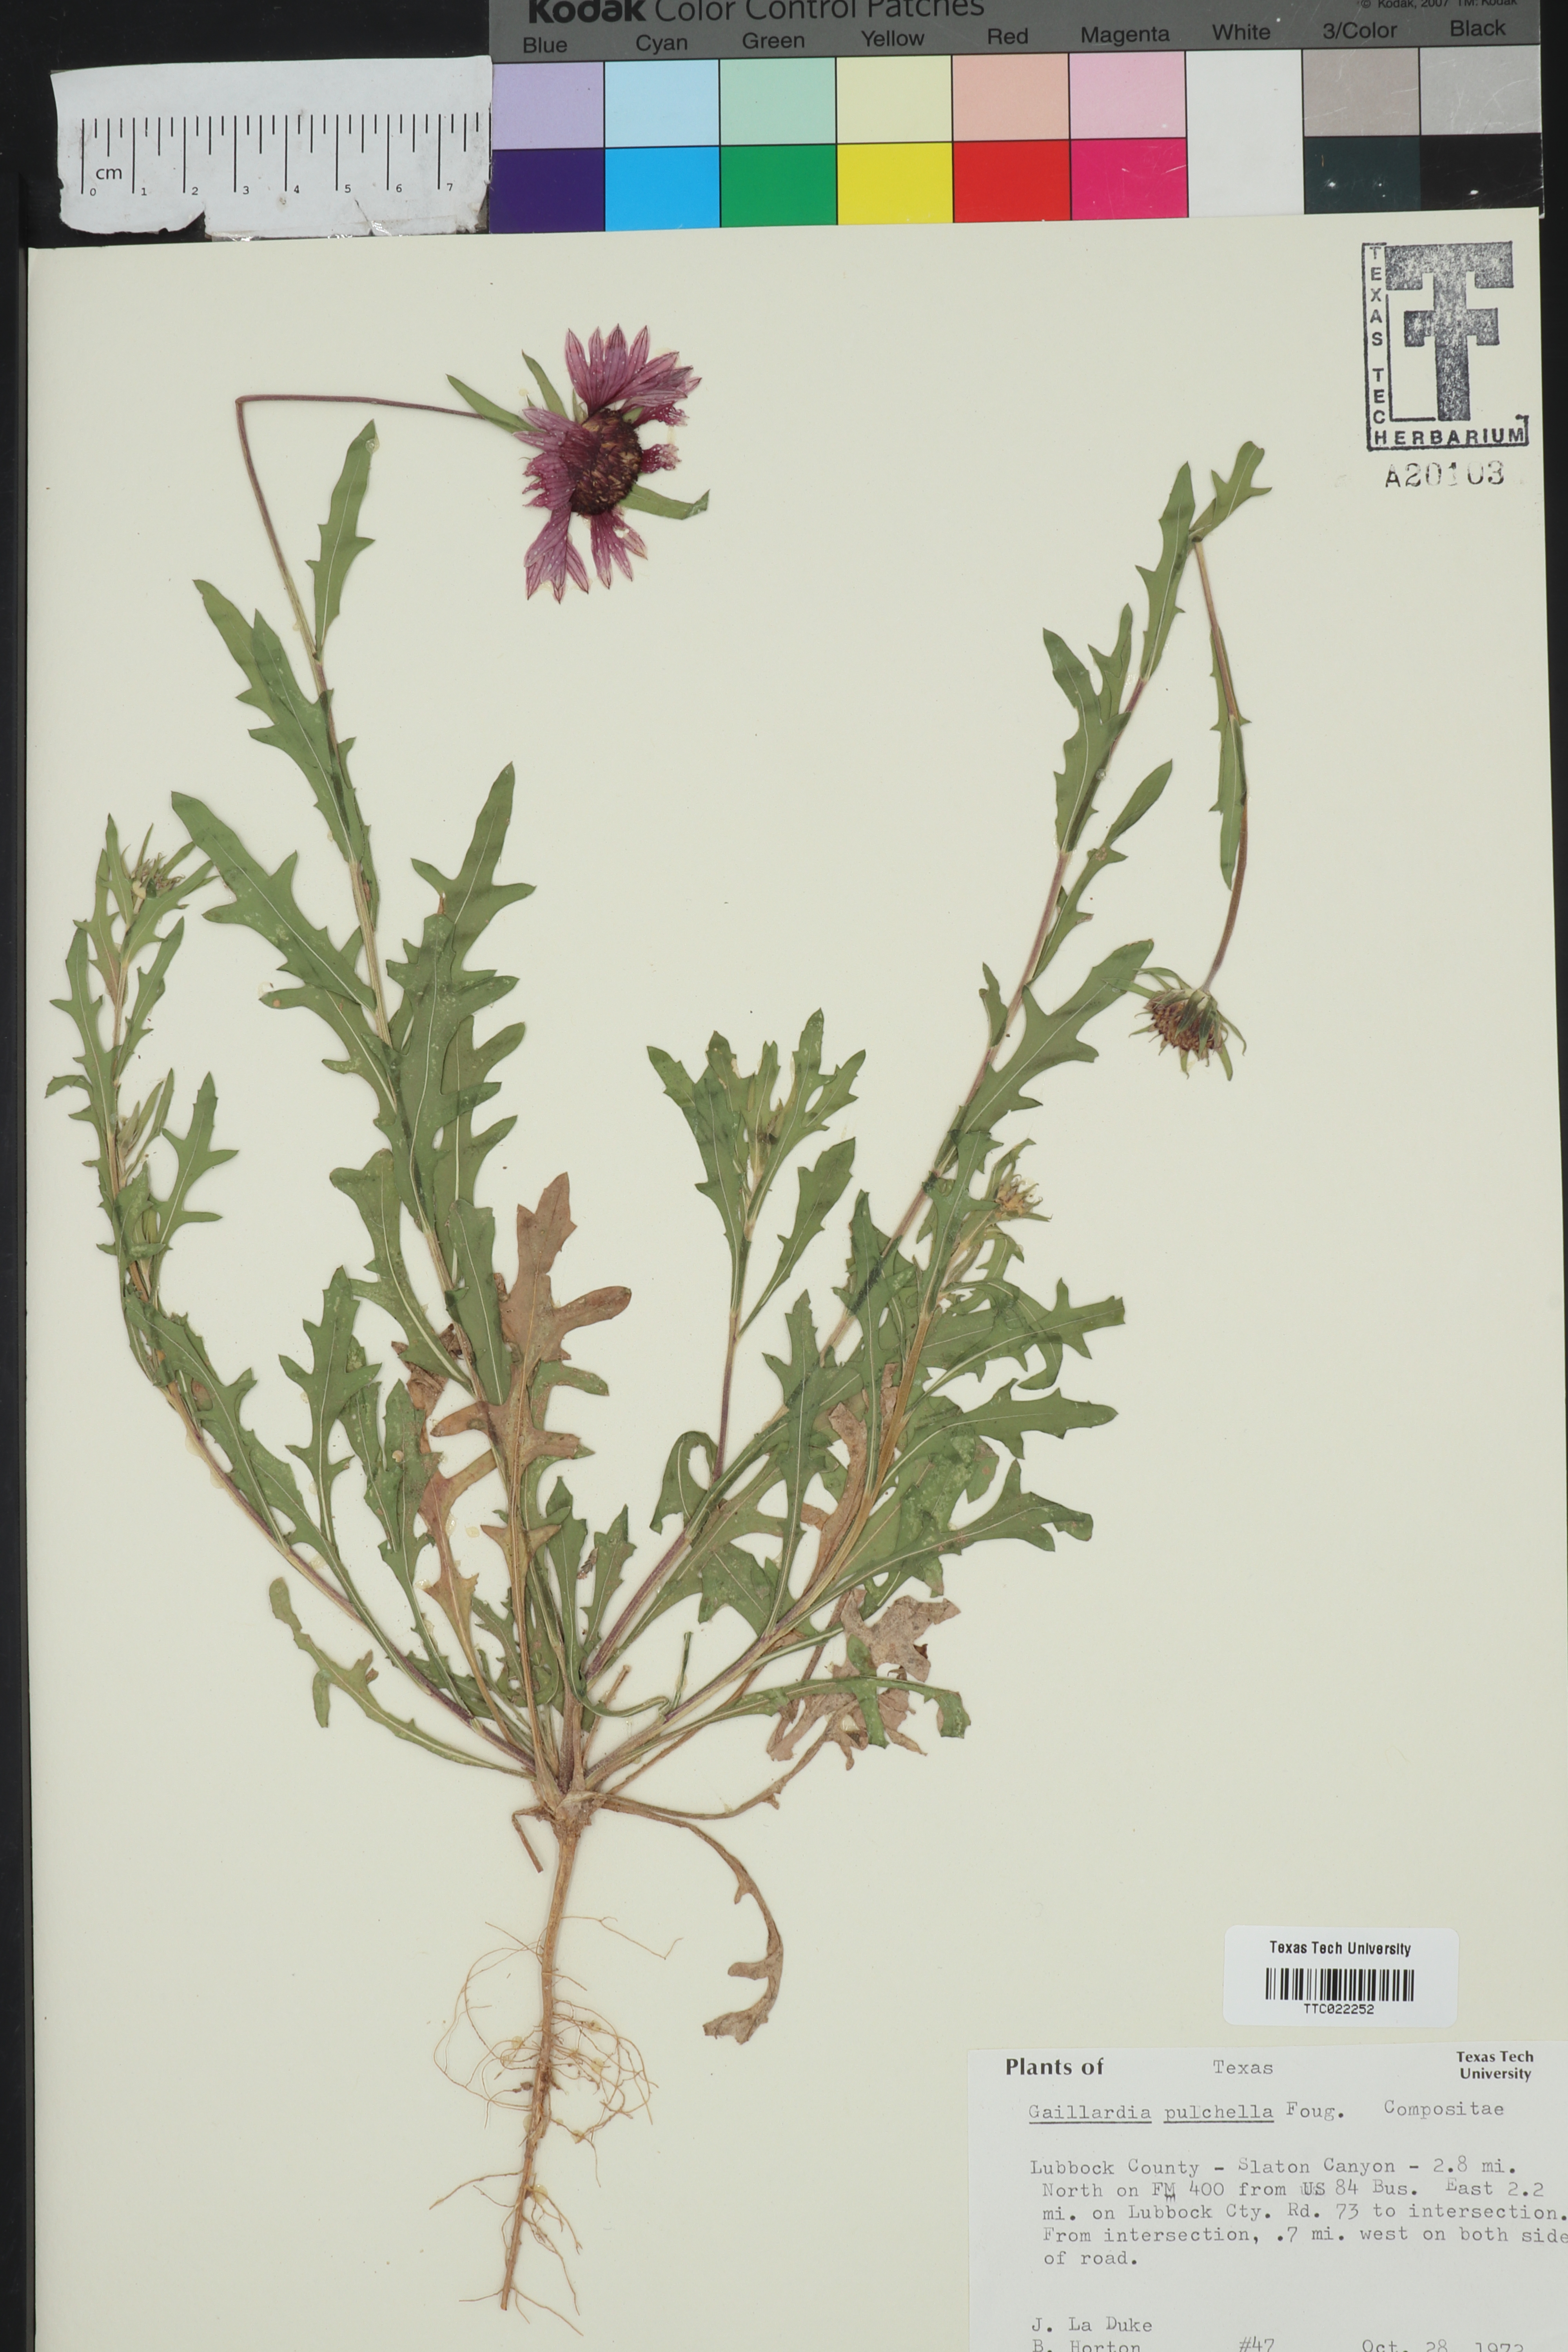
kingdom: Plantae
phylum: Tracheophyta
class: Magnoliopsida
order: Asterales
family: Asteraceae
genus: Gaillardia
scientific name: Gaillardia pulchella
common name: Firewheel
